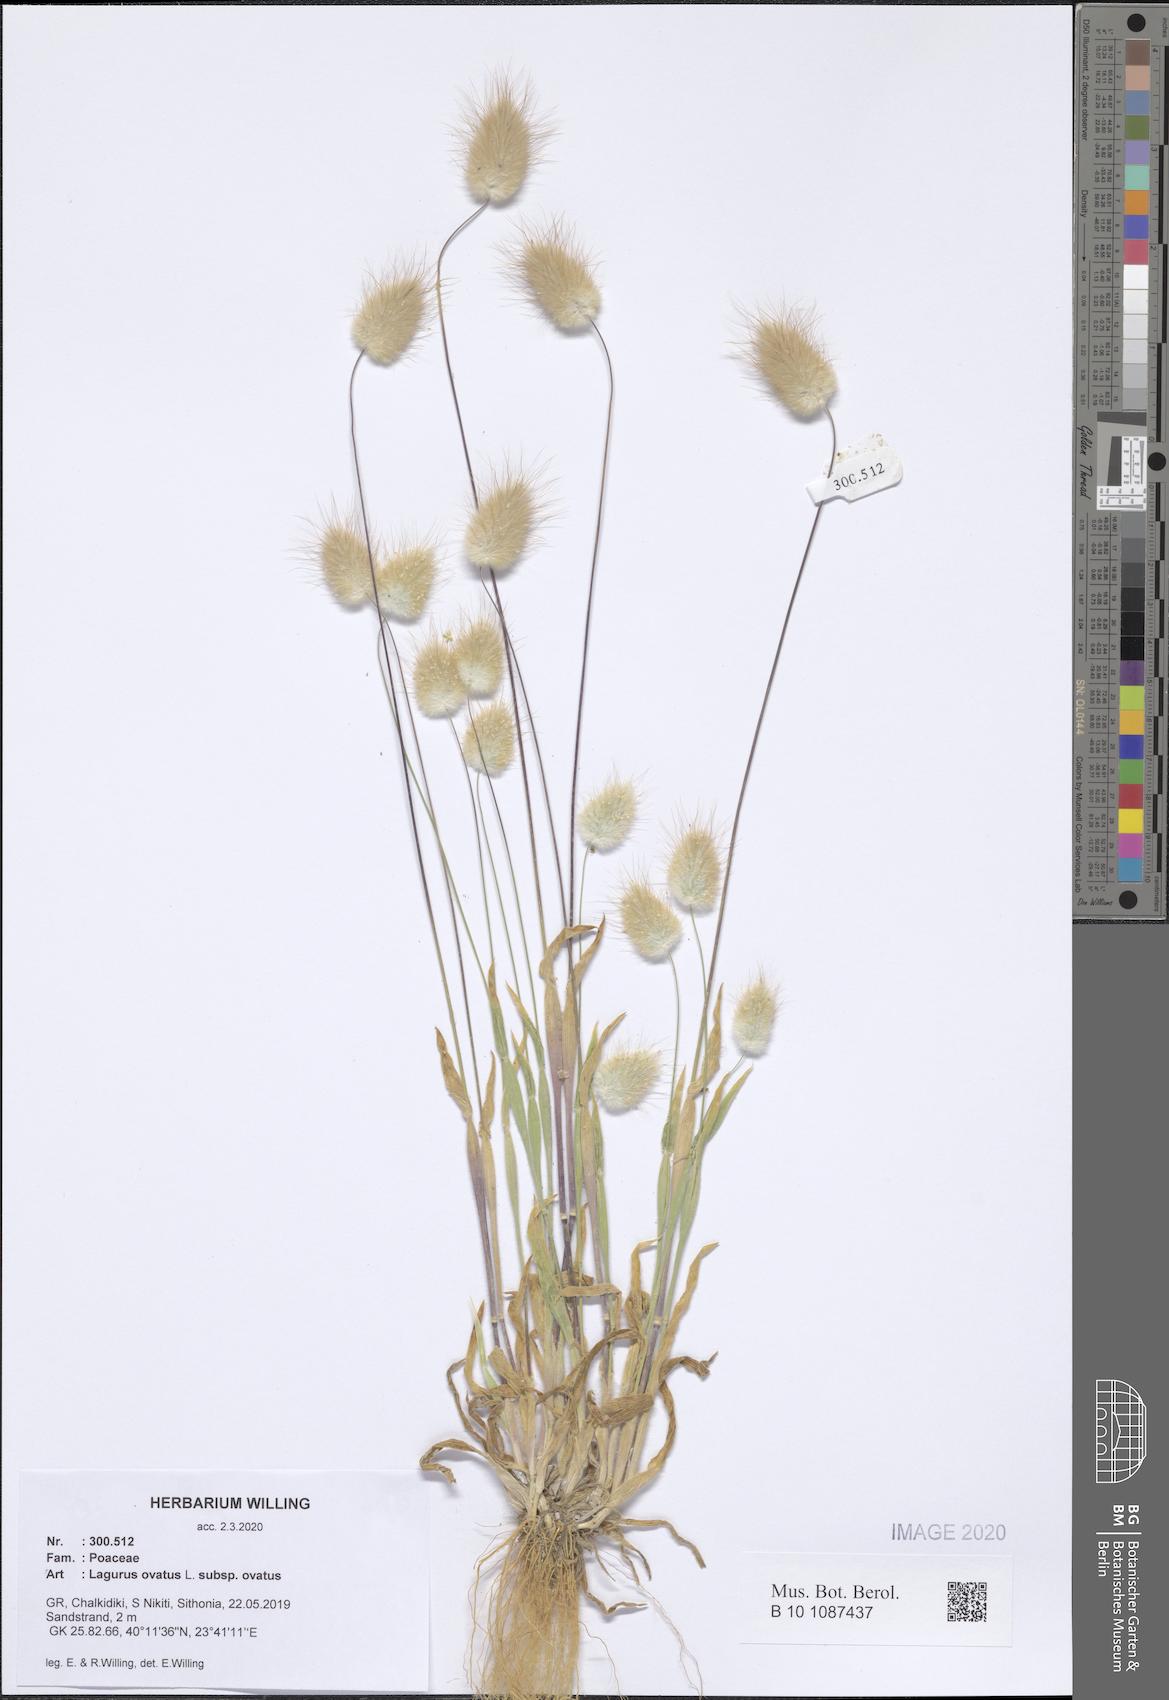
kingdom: Plantae
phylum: Tracheophyta
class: Liliopsida
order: Poales
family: Poaceae
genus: Lagurus
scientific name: Lagurus ovatus
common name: Hare's-tail
